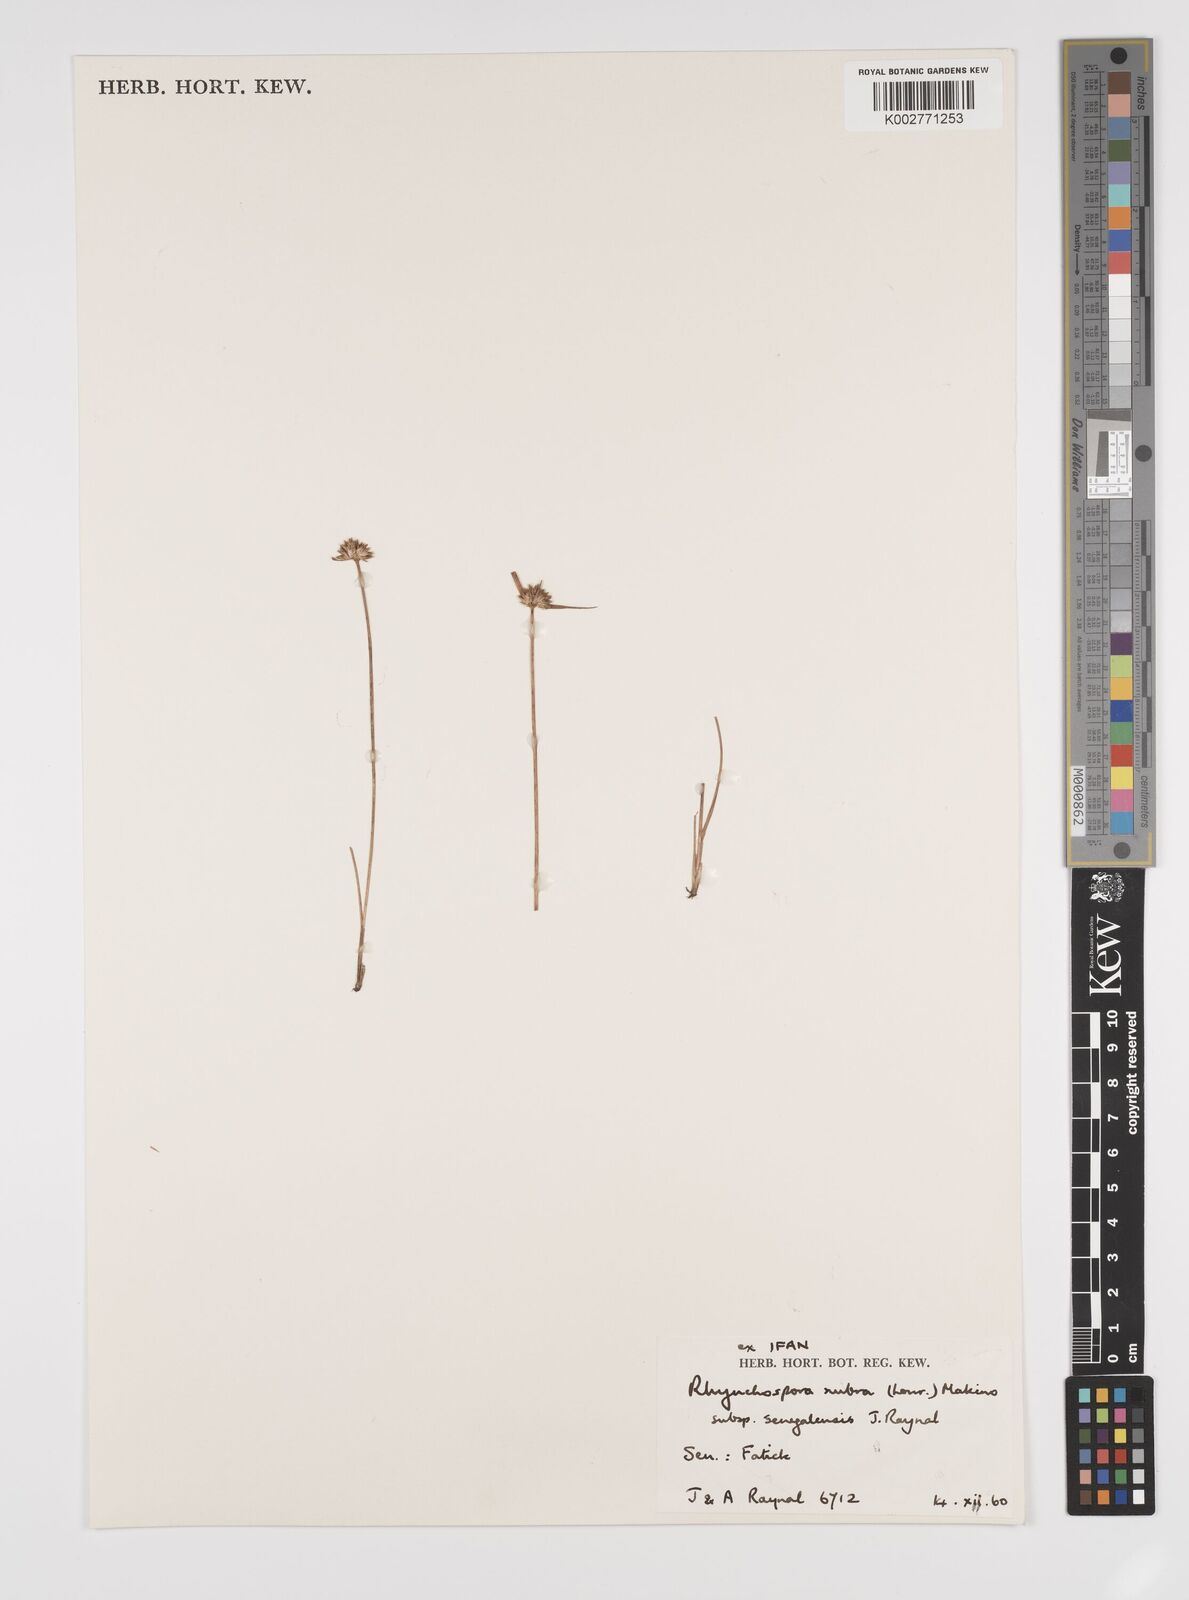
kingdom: Plantae
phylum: Tracheophyta
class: Liliopsida
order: Poales
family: Cyperaceae
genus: Rhynchospora
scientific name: Rhynchospora rubra
